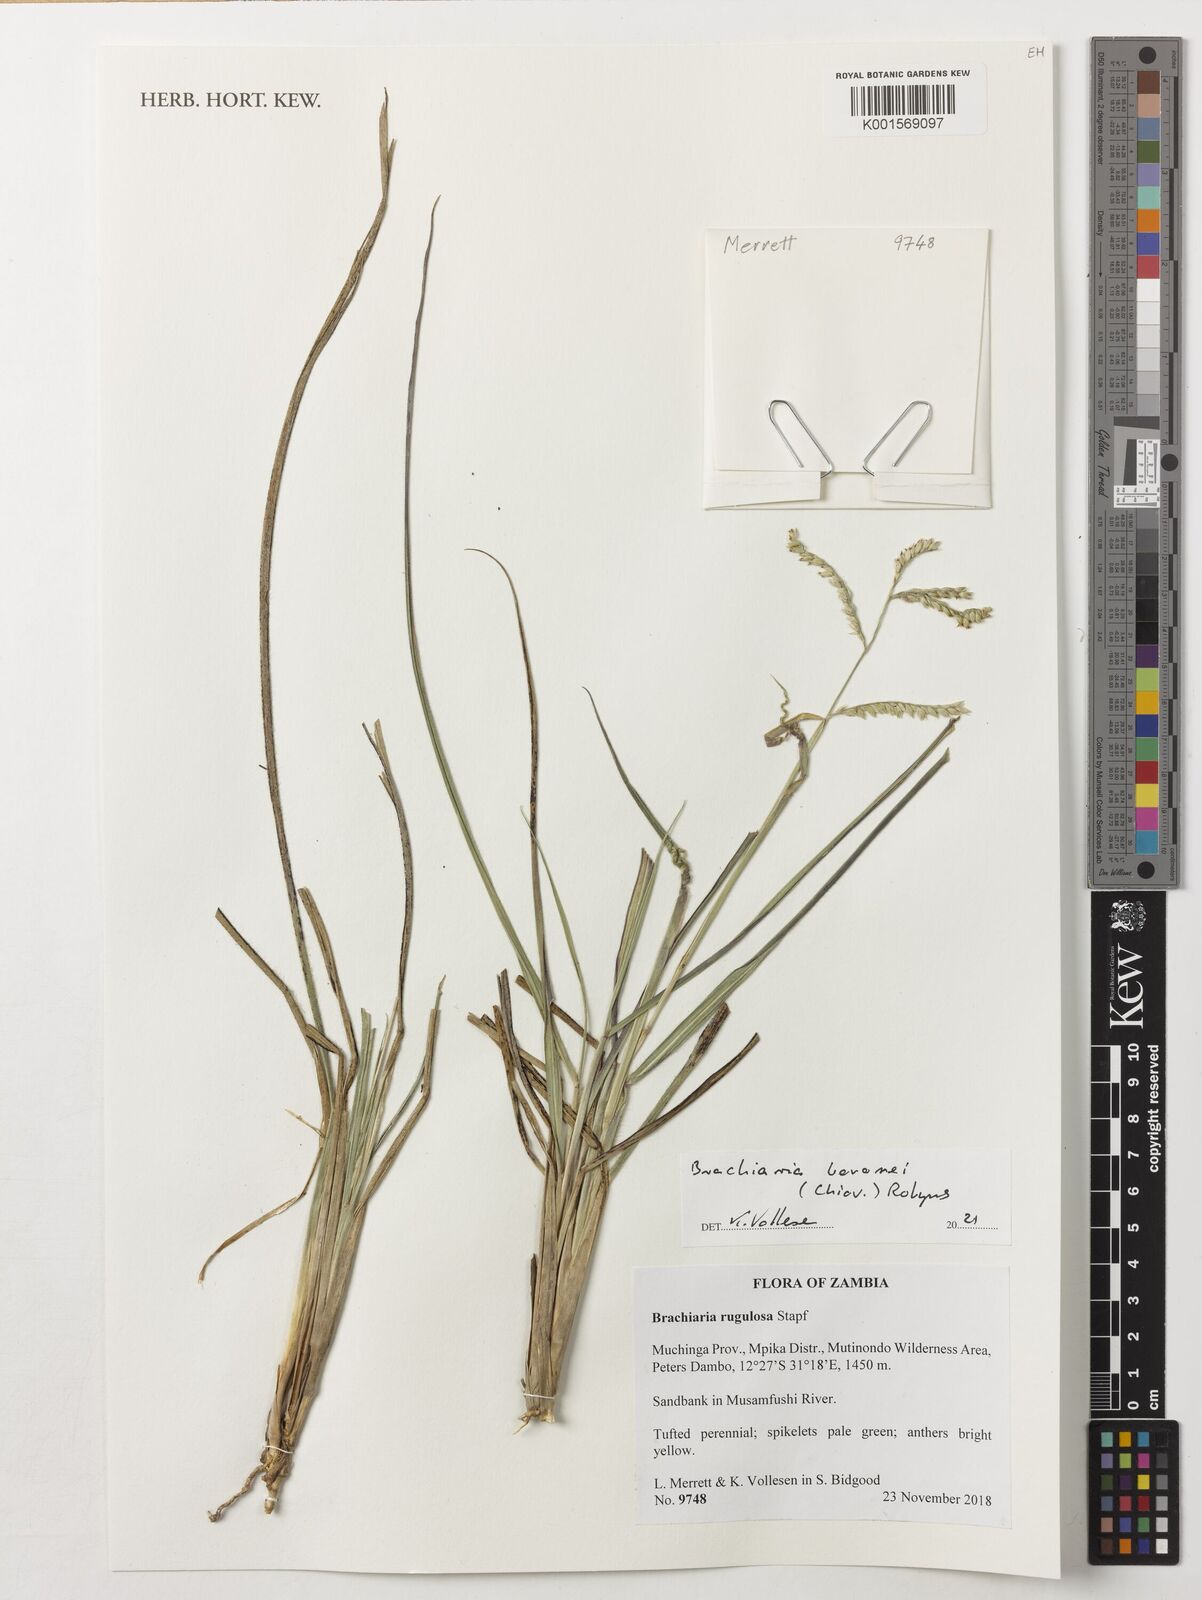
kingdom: Plantae
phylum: Tracheophyta
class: Liliopsida
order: Poales
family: Poaceae
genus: Urochloa
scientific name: Urochloa rugulosa
